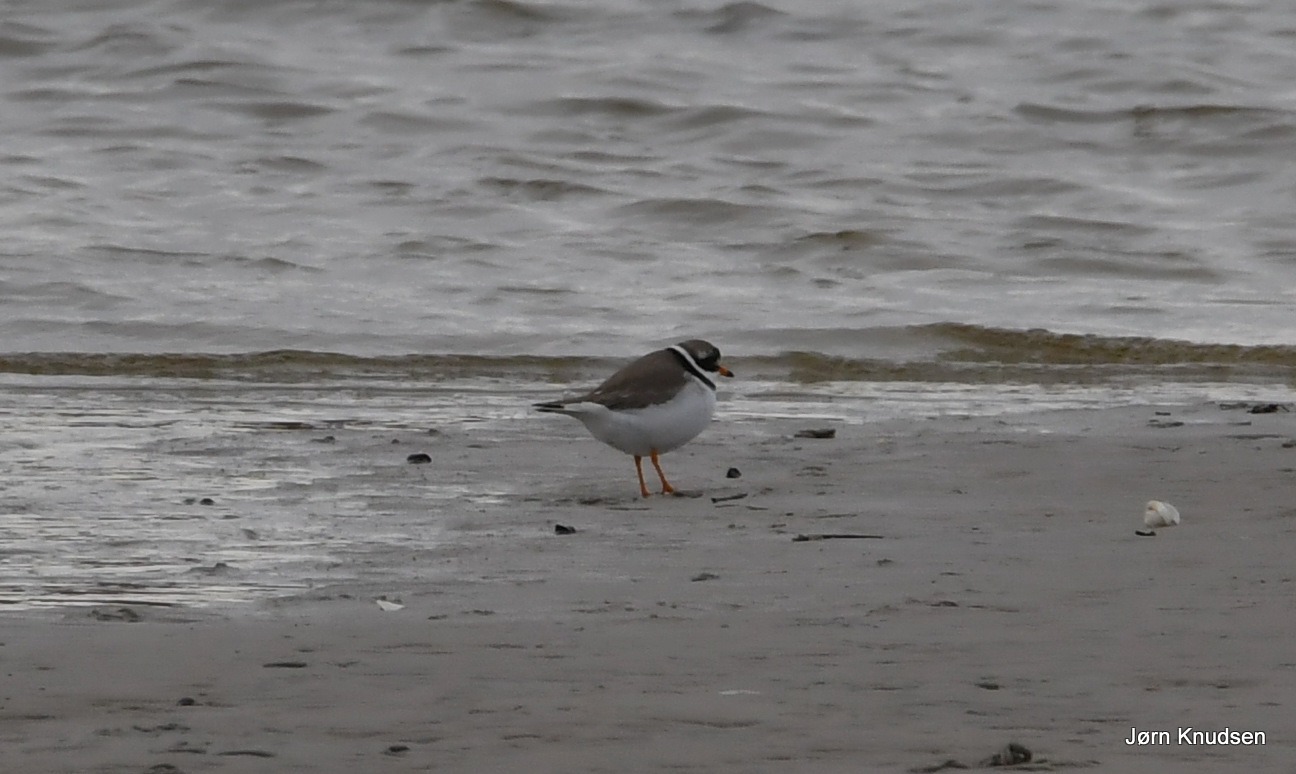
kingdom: Animalia
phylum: Chordata
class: Aves
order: Charadriiformes
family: Charadriidae
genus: Charadrius
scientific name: Charadrius hiaticula
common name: Stor præstekrave
